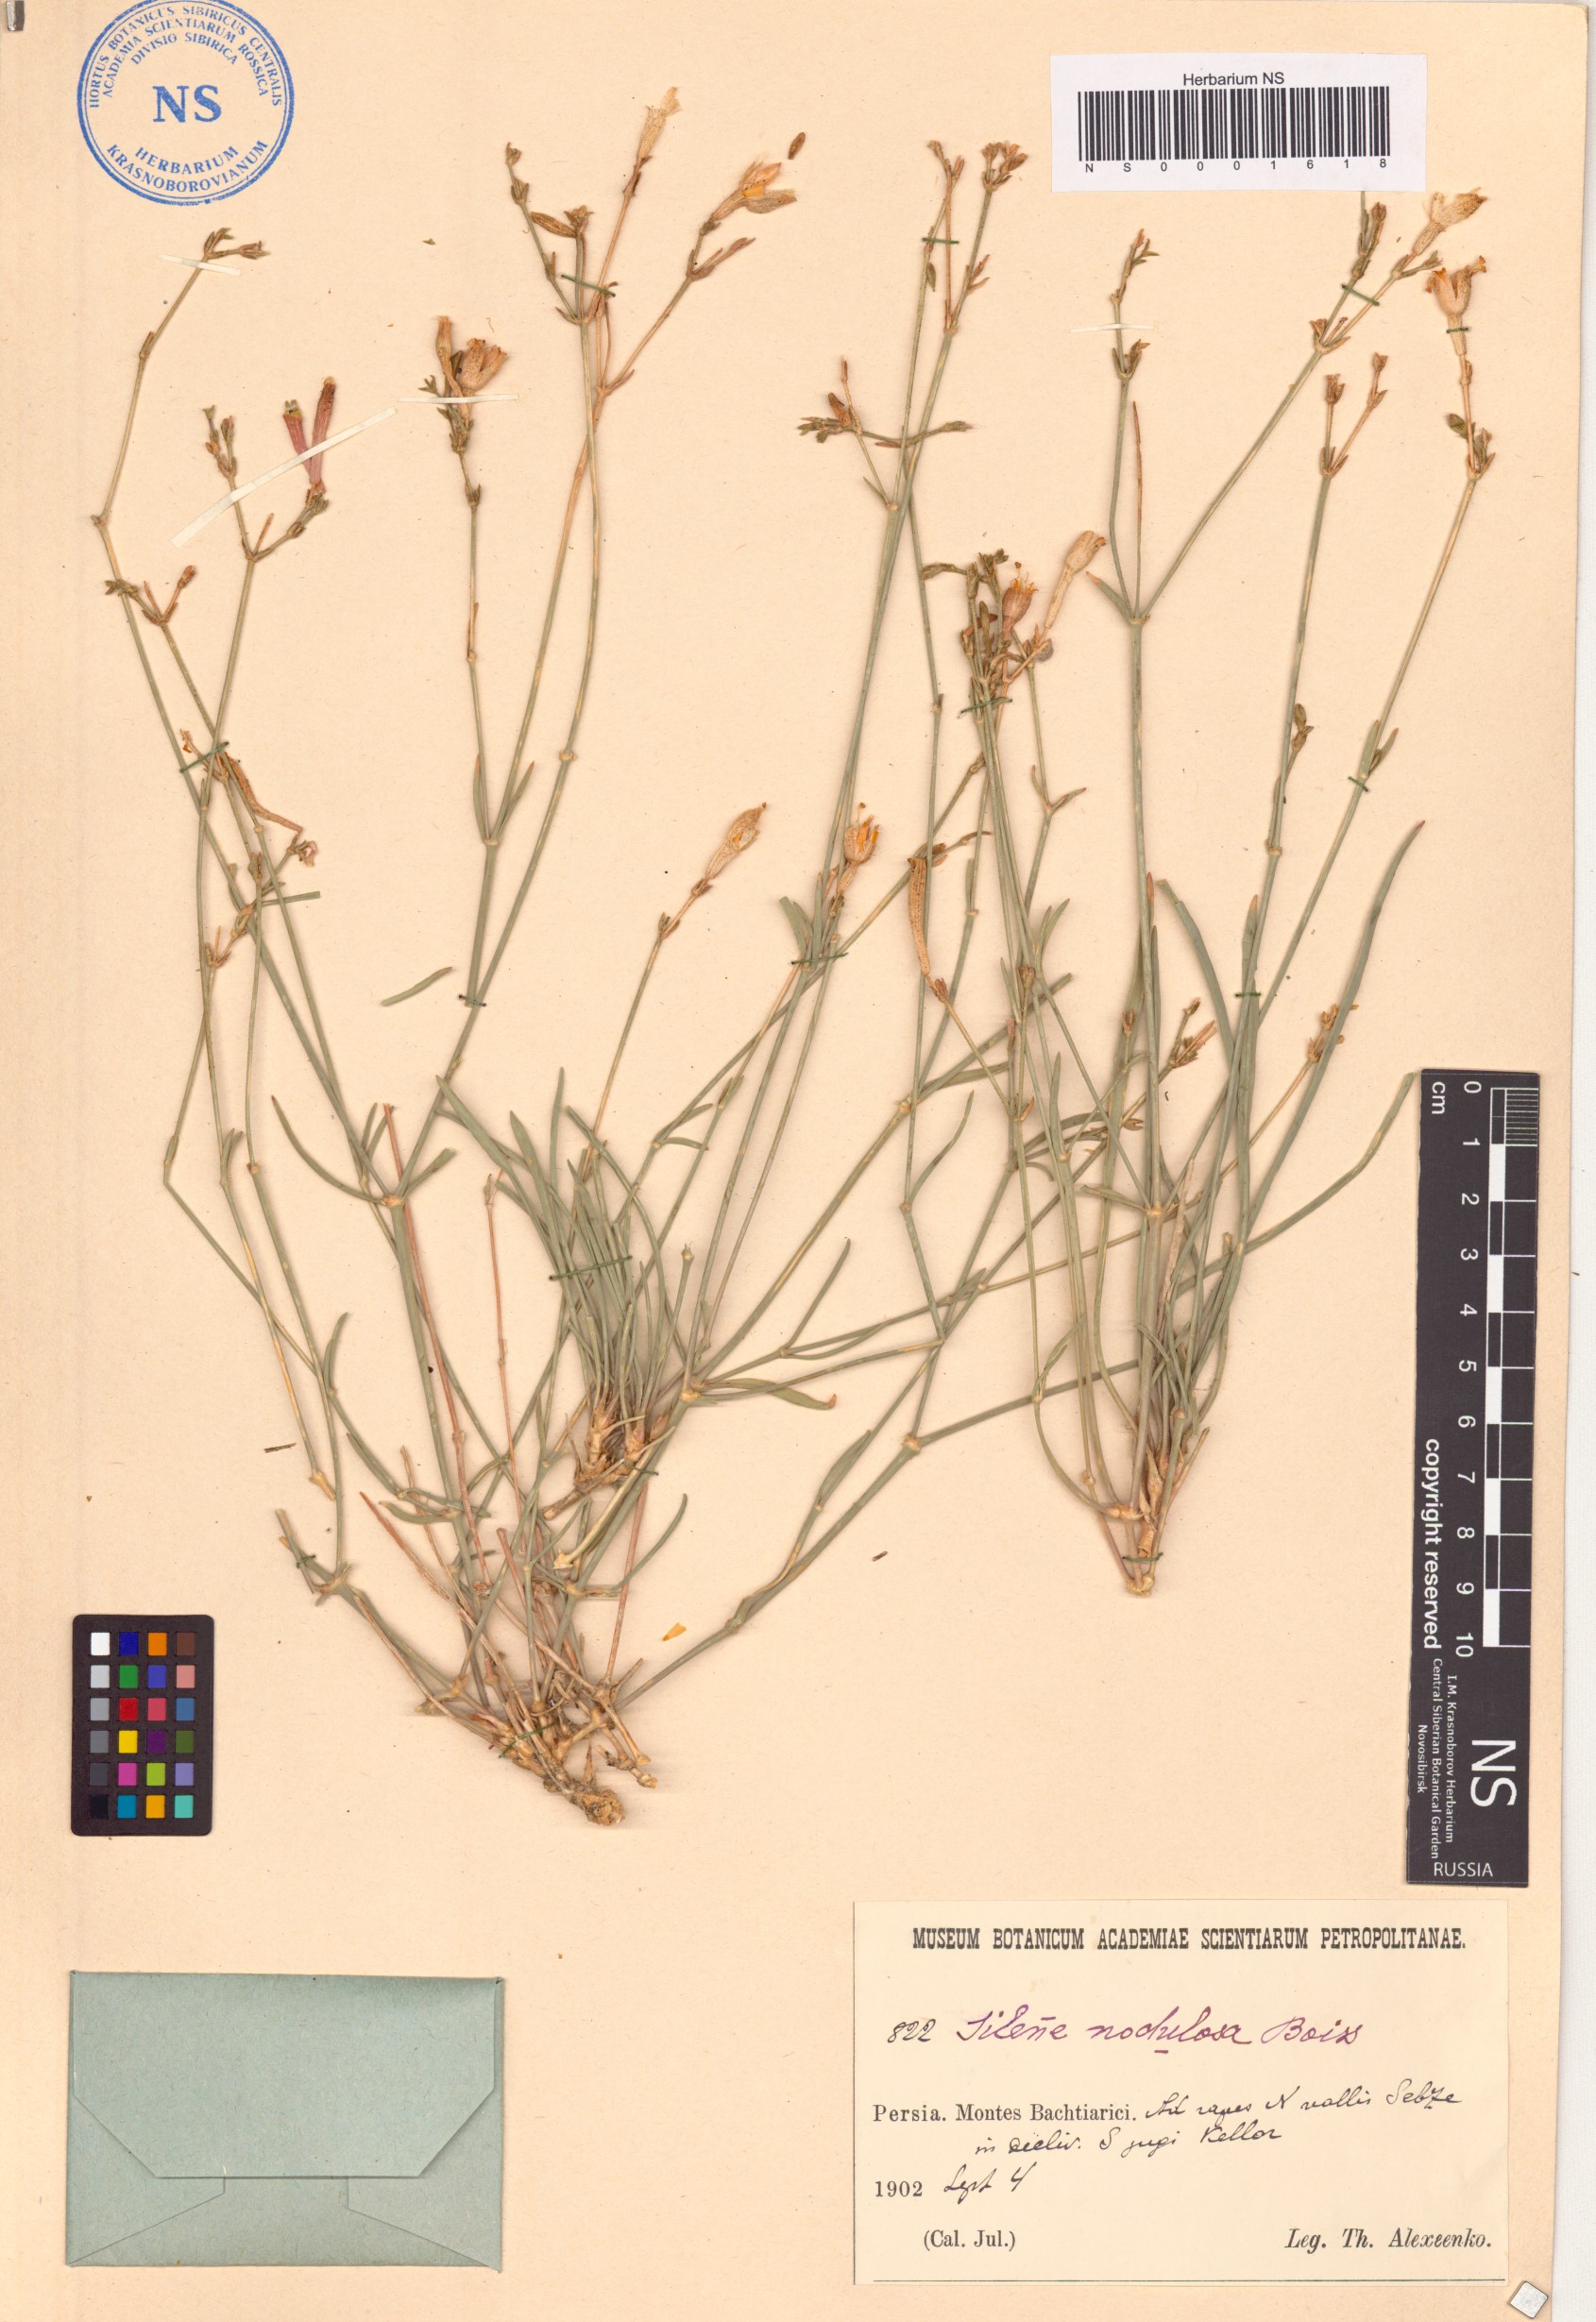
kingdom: Plantae
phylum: Tracheophyta
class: Magnoliopsida
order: Caryophyllales
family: Caryophyllaceae
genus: Silene
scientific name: Silene gynodioica
